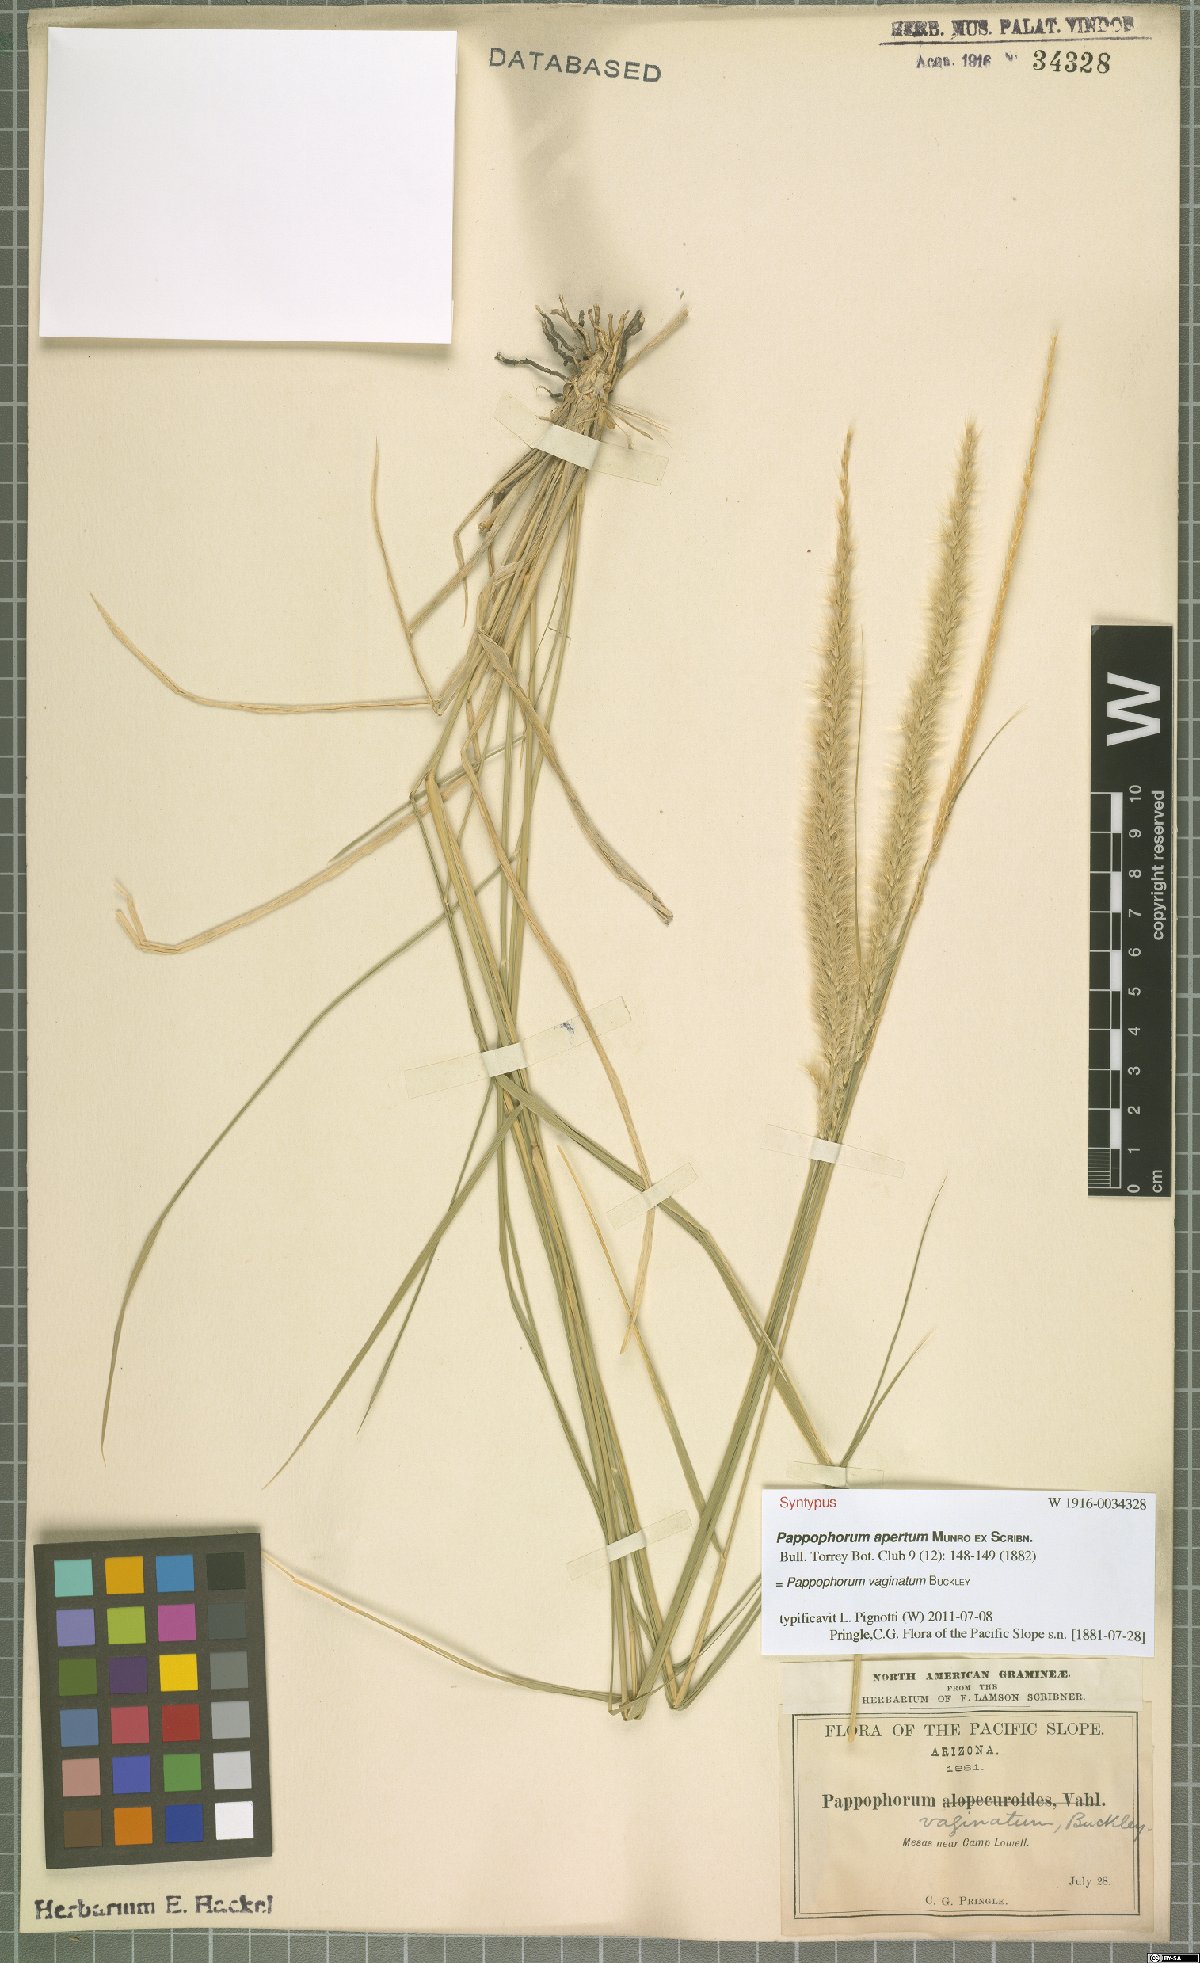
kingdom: Plantae
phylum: Tracheophyta
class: Liliopsida
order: Poales
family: Poaceae
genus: Pappophorum
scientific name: Pappophorum mucronulatum
